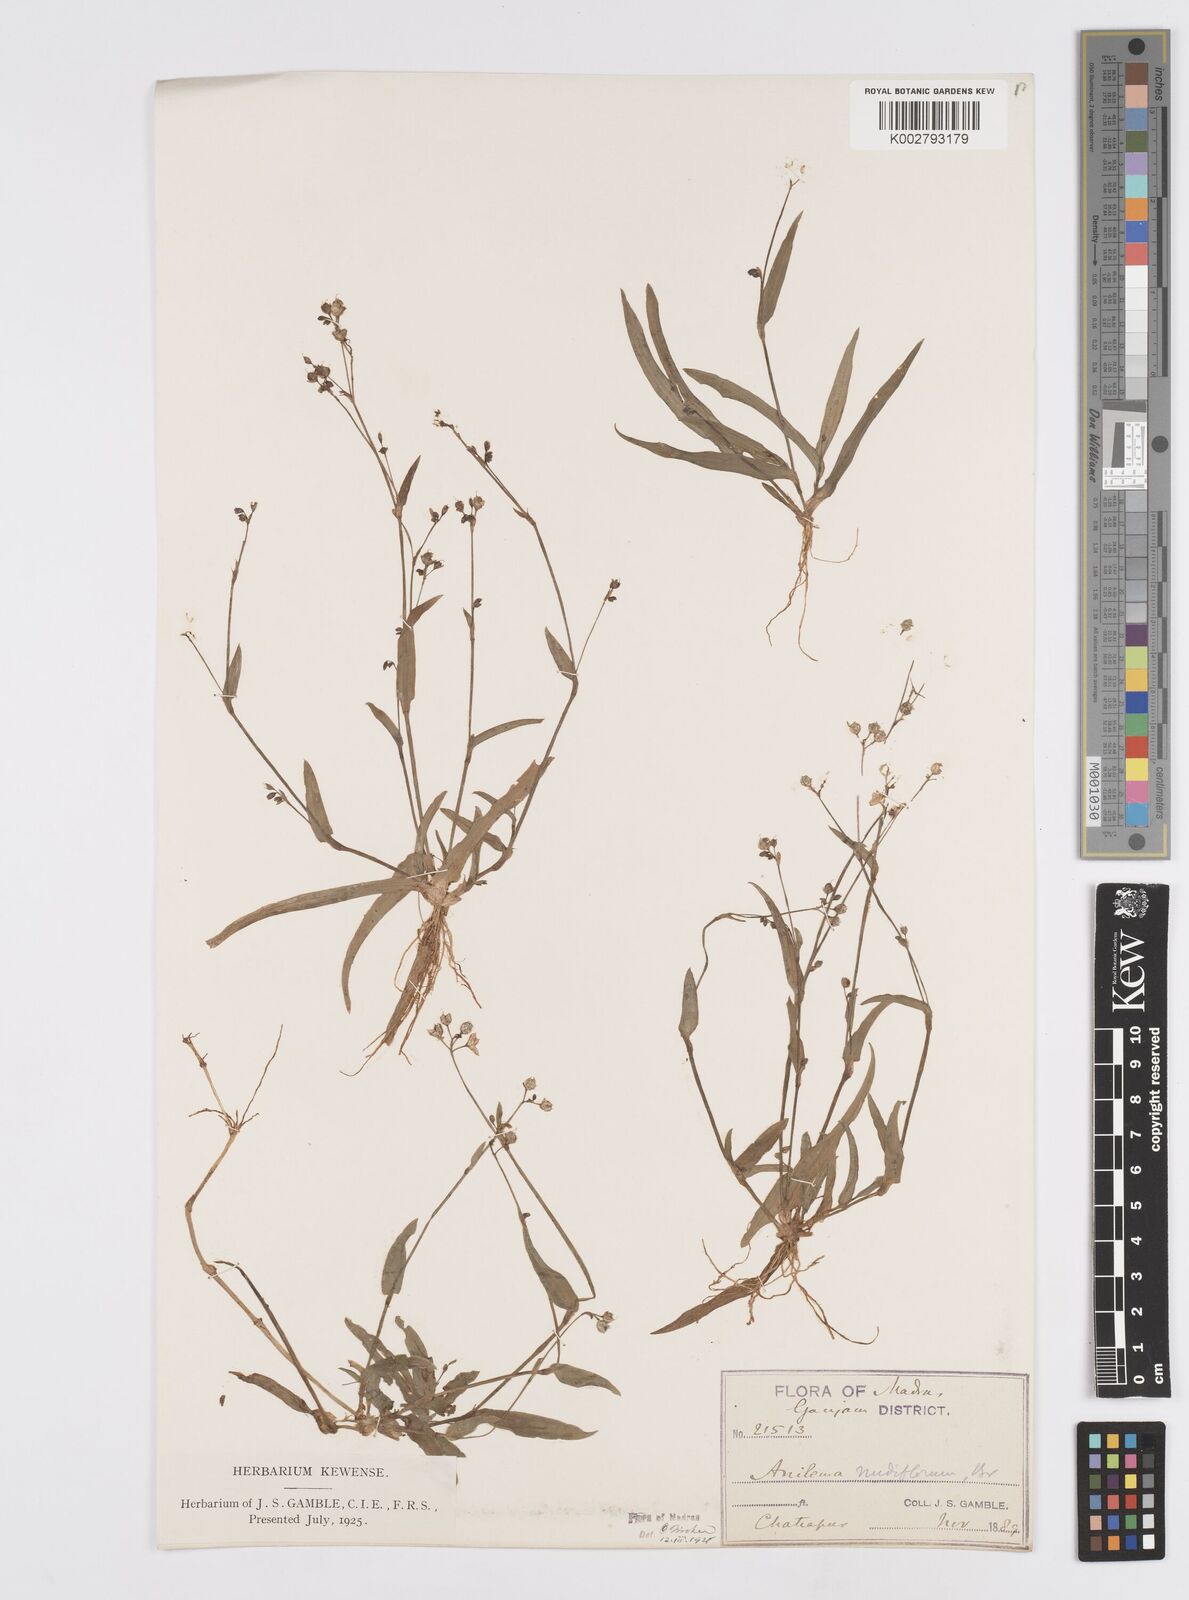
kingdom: Plantae
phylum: Tracheophyta
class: Liliopsida
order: Commelinales
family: Commelinaceae
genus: Murdannia
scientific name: Murdannia
